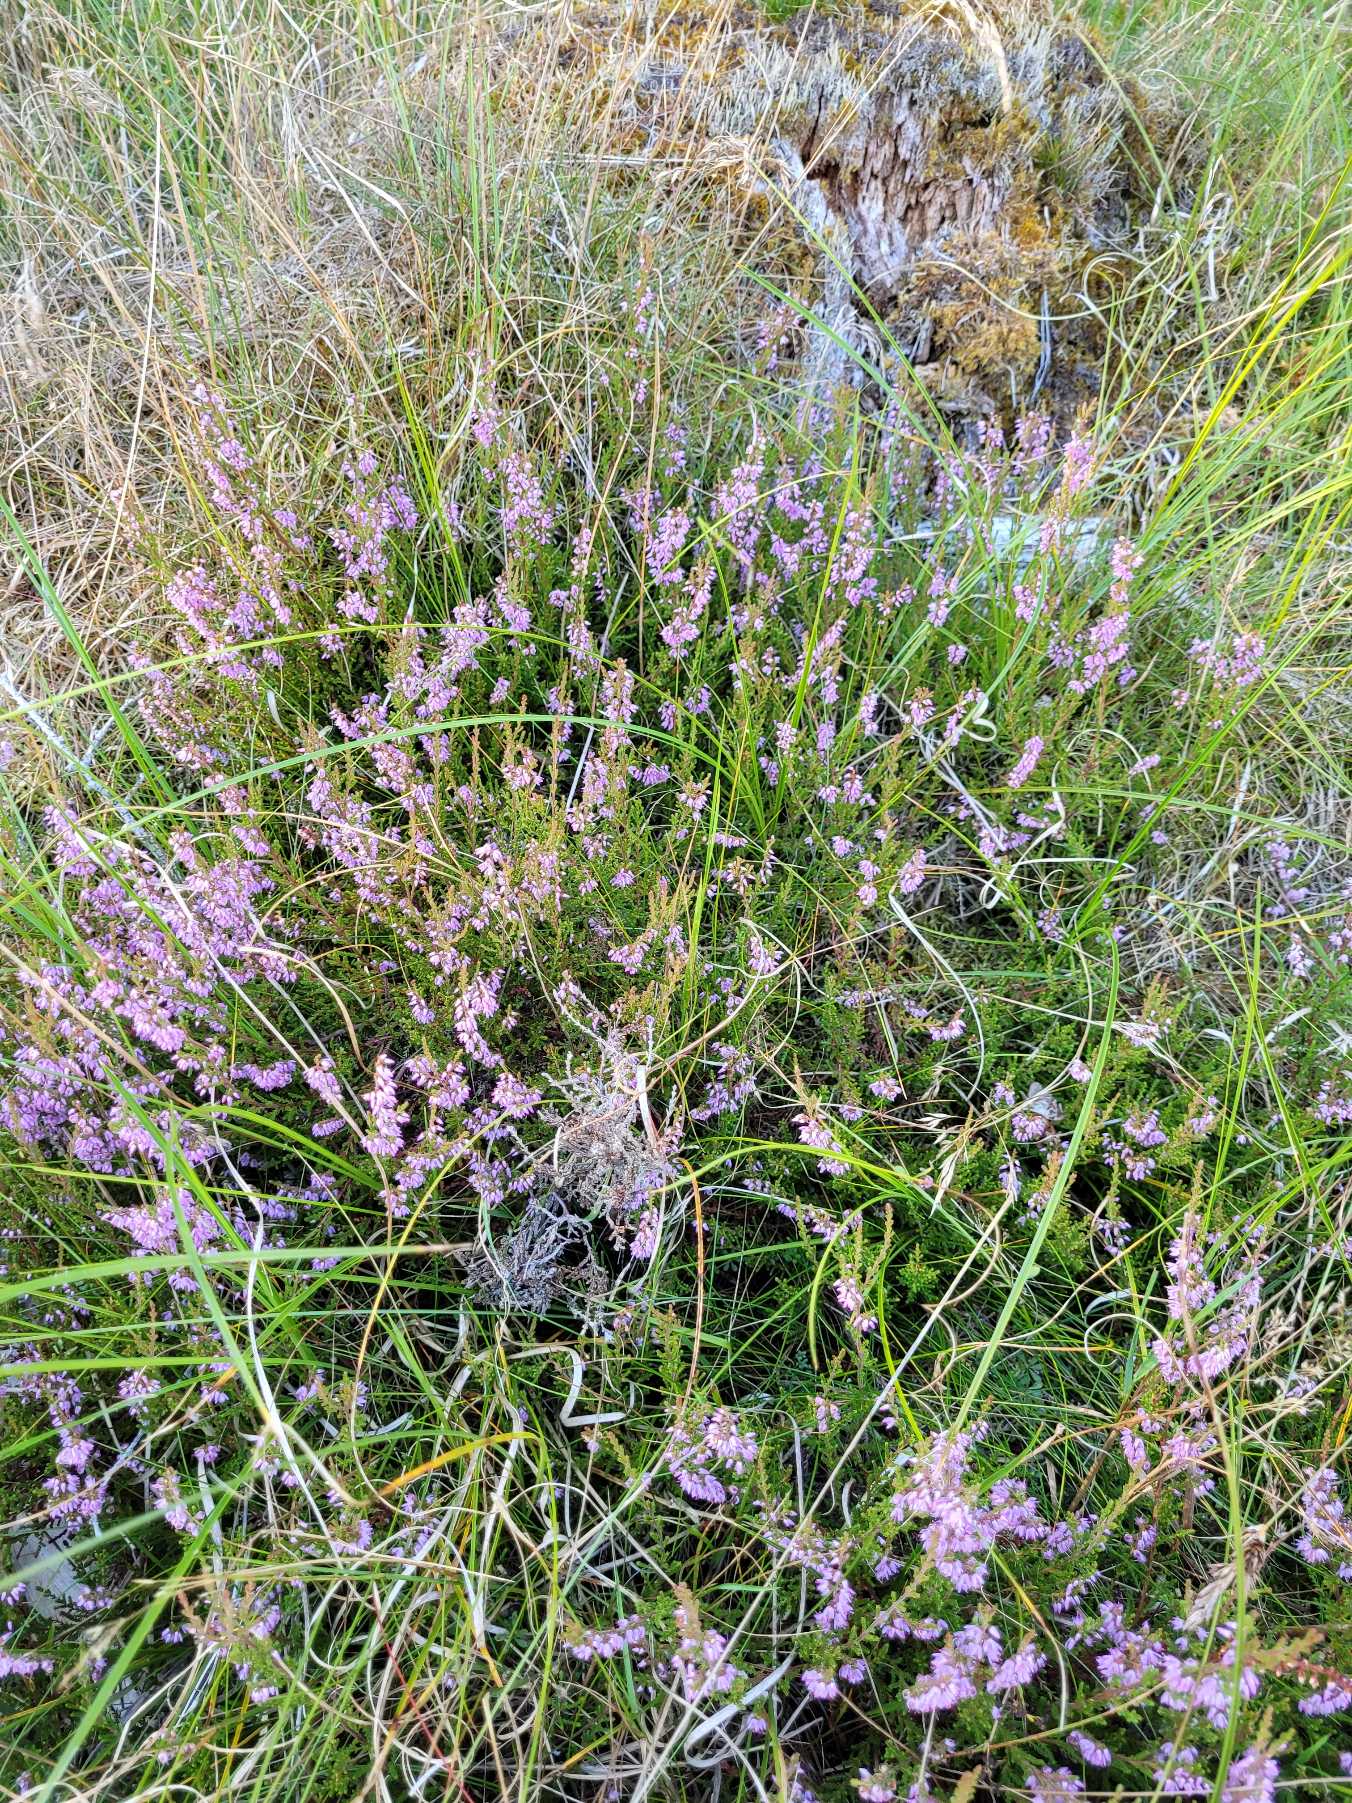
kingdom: Plantae
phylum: Tracheophyta
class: Magnoliopsida
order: Ericales
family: Ericaceae
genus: Calluna
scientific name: Calluna vulgaris
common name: Hedelyng
